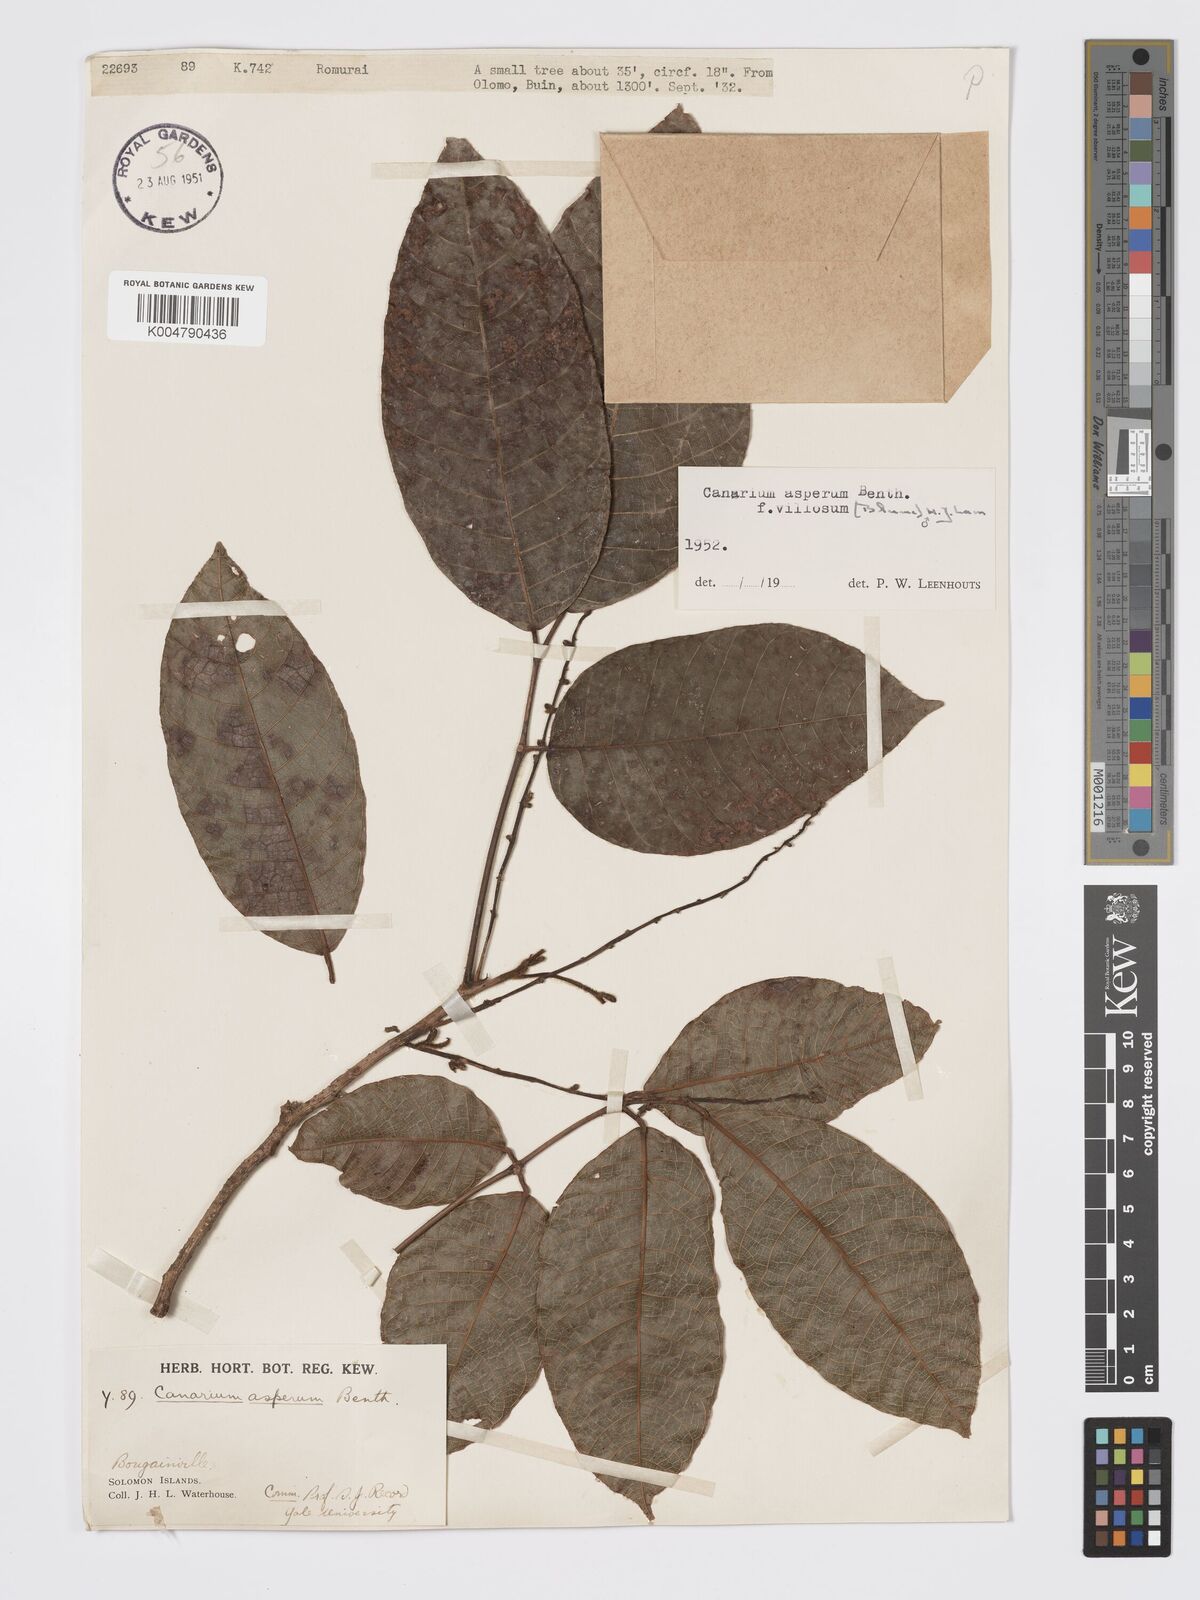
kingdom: Plantae
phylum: Tracheophyta
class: Magnoliopsida
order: Sapindales
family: Burseraceae
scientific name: Burseraceae
